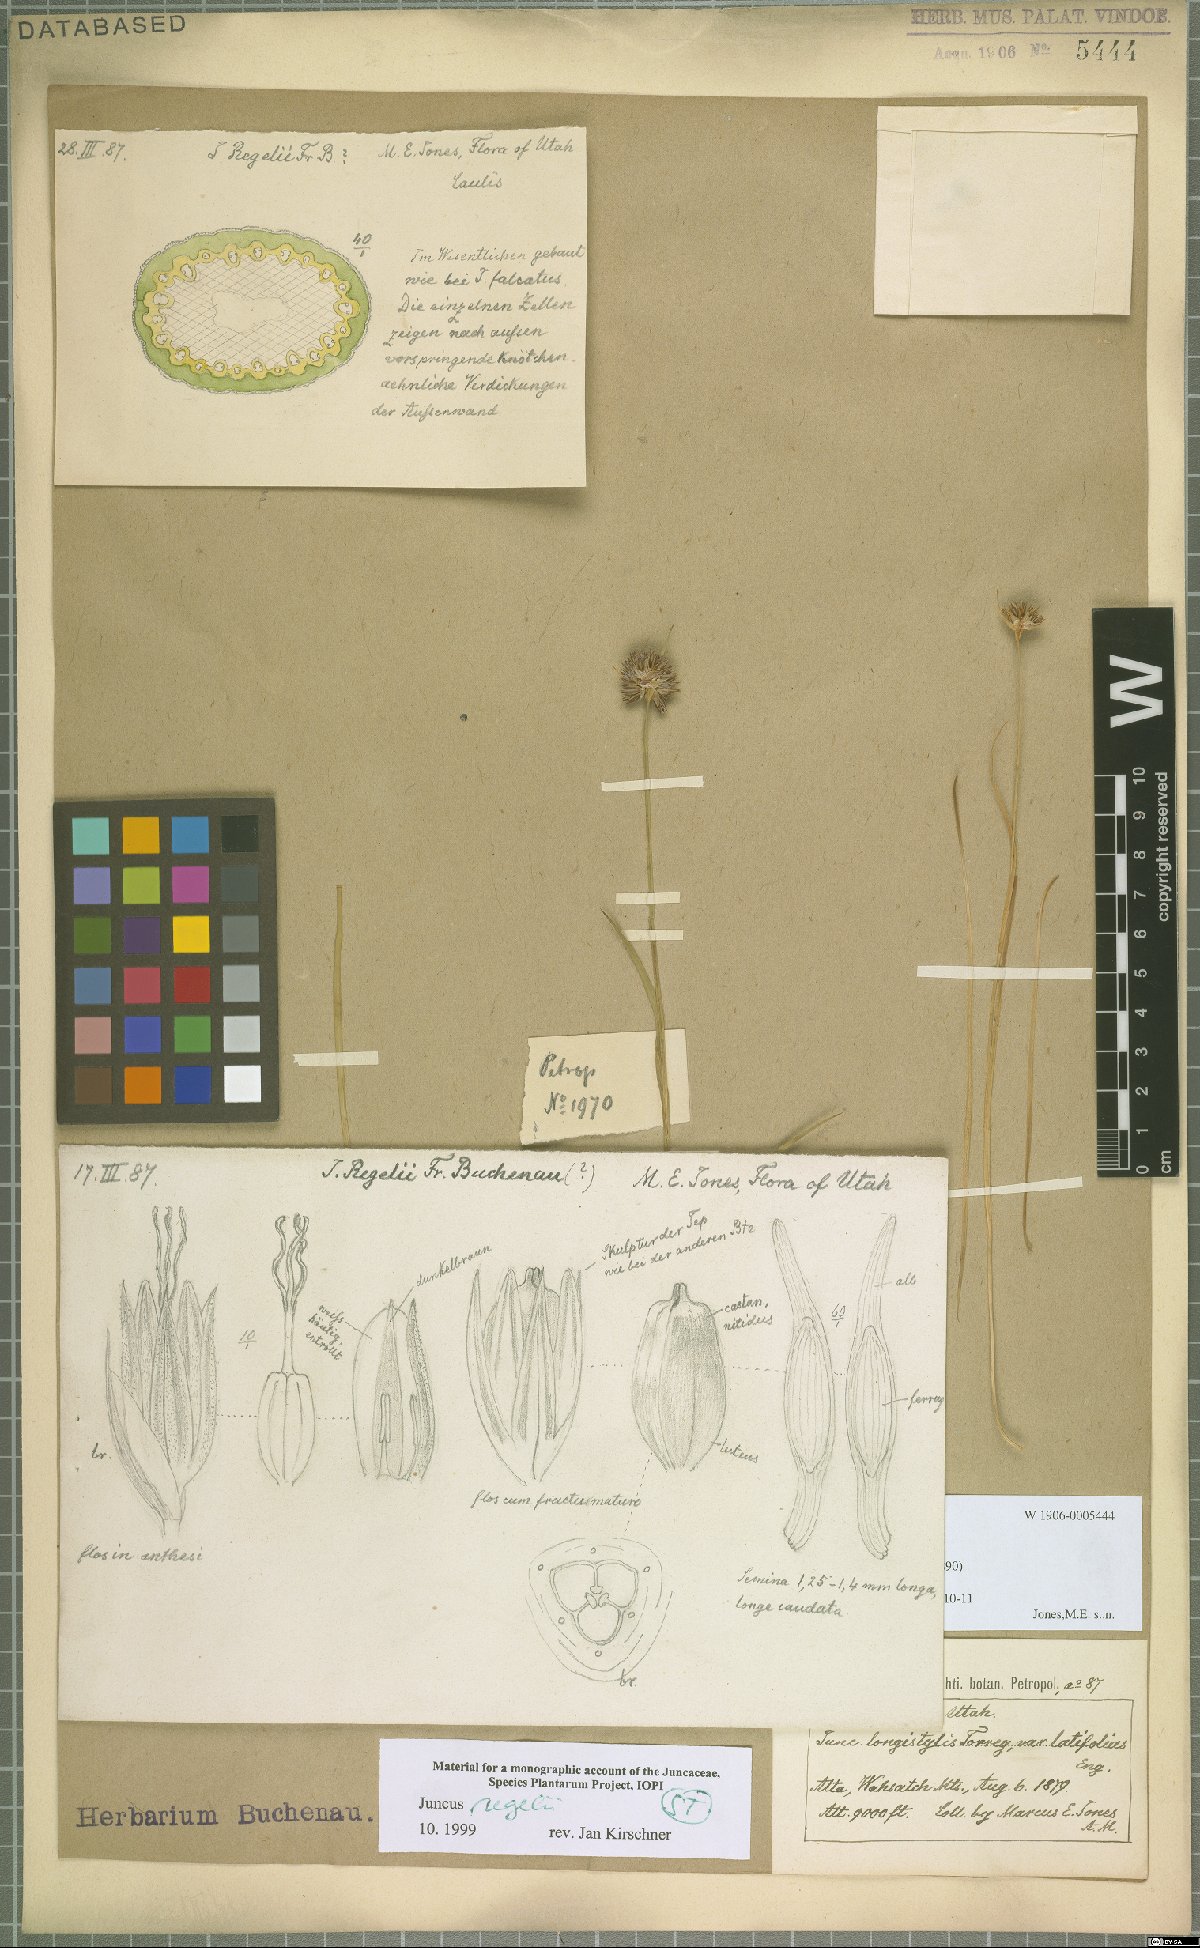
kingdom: Plantae
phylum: Tracheophyta
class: Liliopsida
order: Poales
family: Juncaceae
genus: Juncus
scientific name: Juncus regelii
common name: Regel's rush
